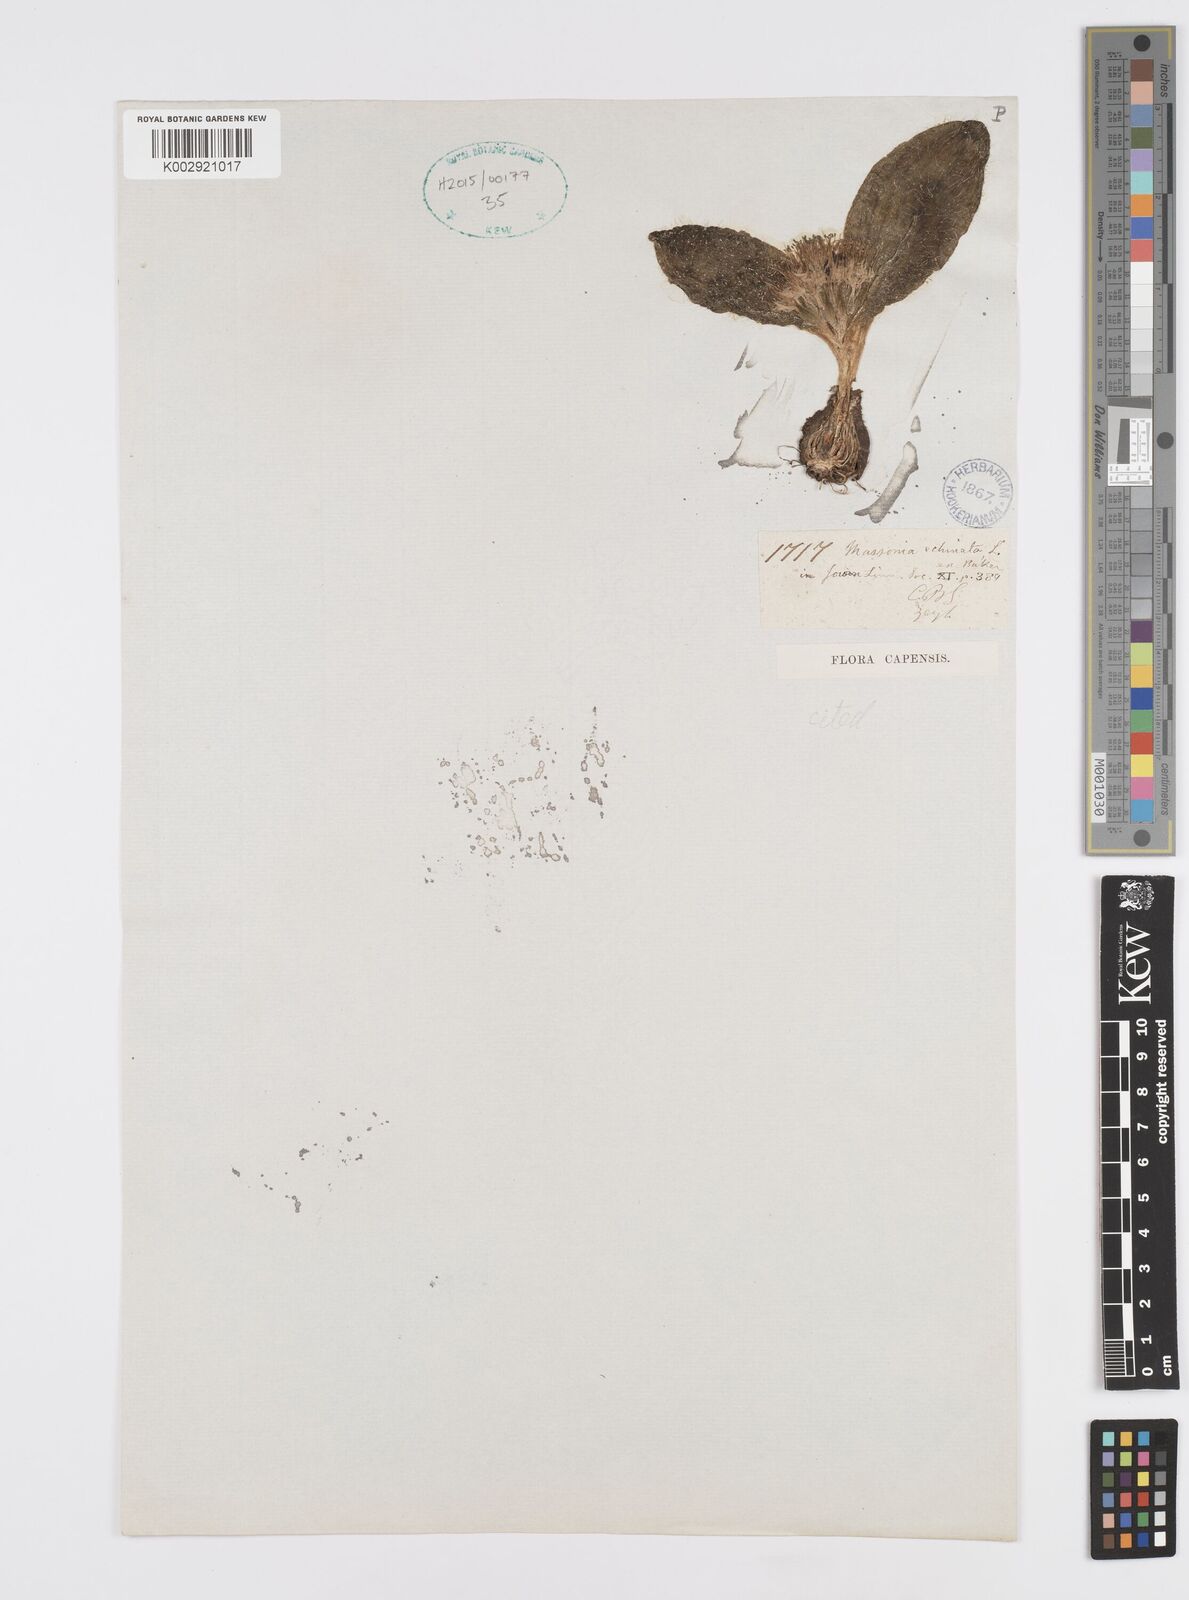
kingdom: Plantae
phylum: Tracheophyta
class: Liliopsida
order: Asparagales
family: Asparagaceae
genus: Massonia
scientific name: Massonia echinata
